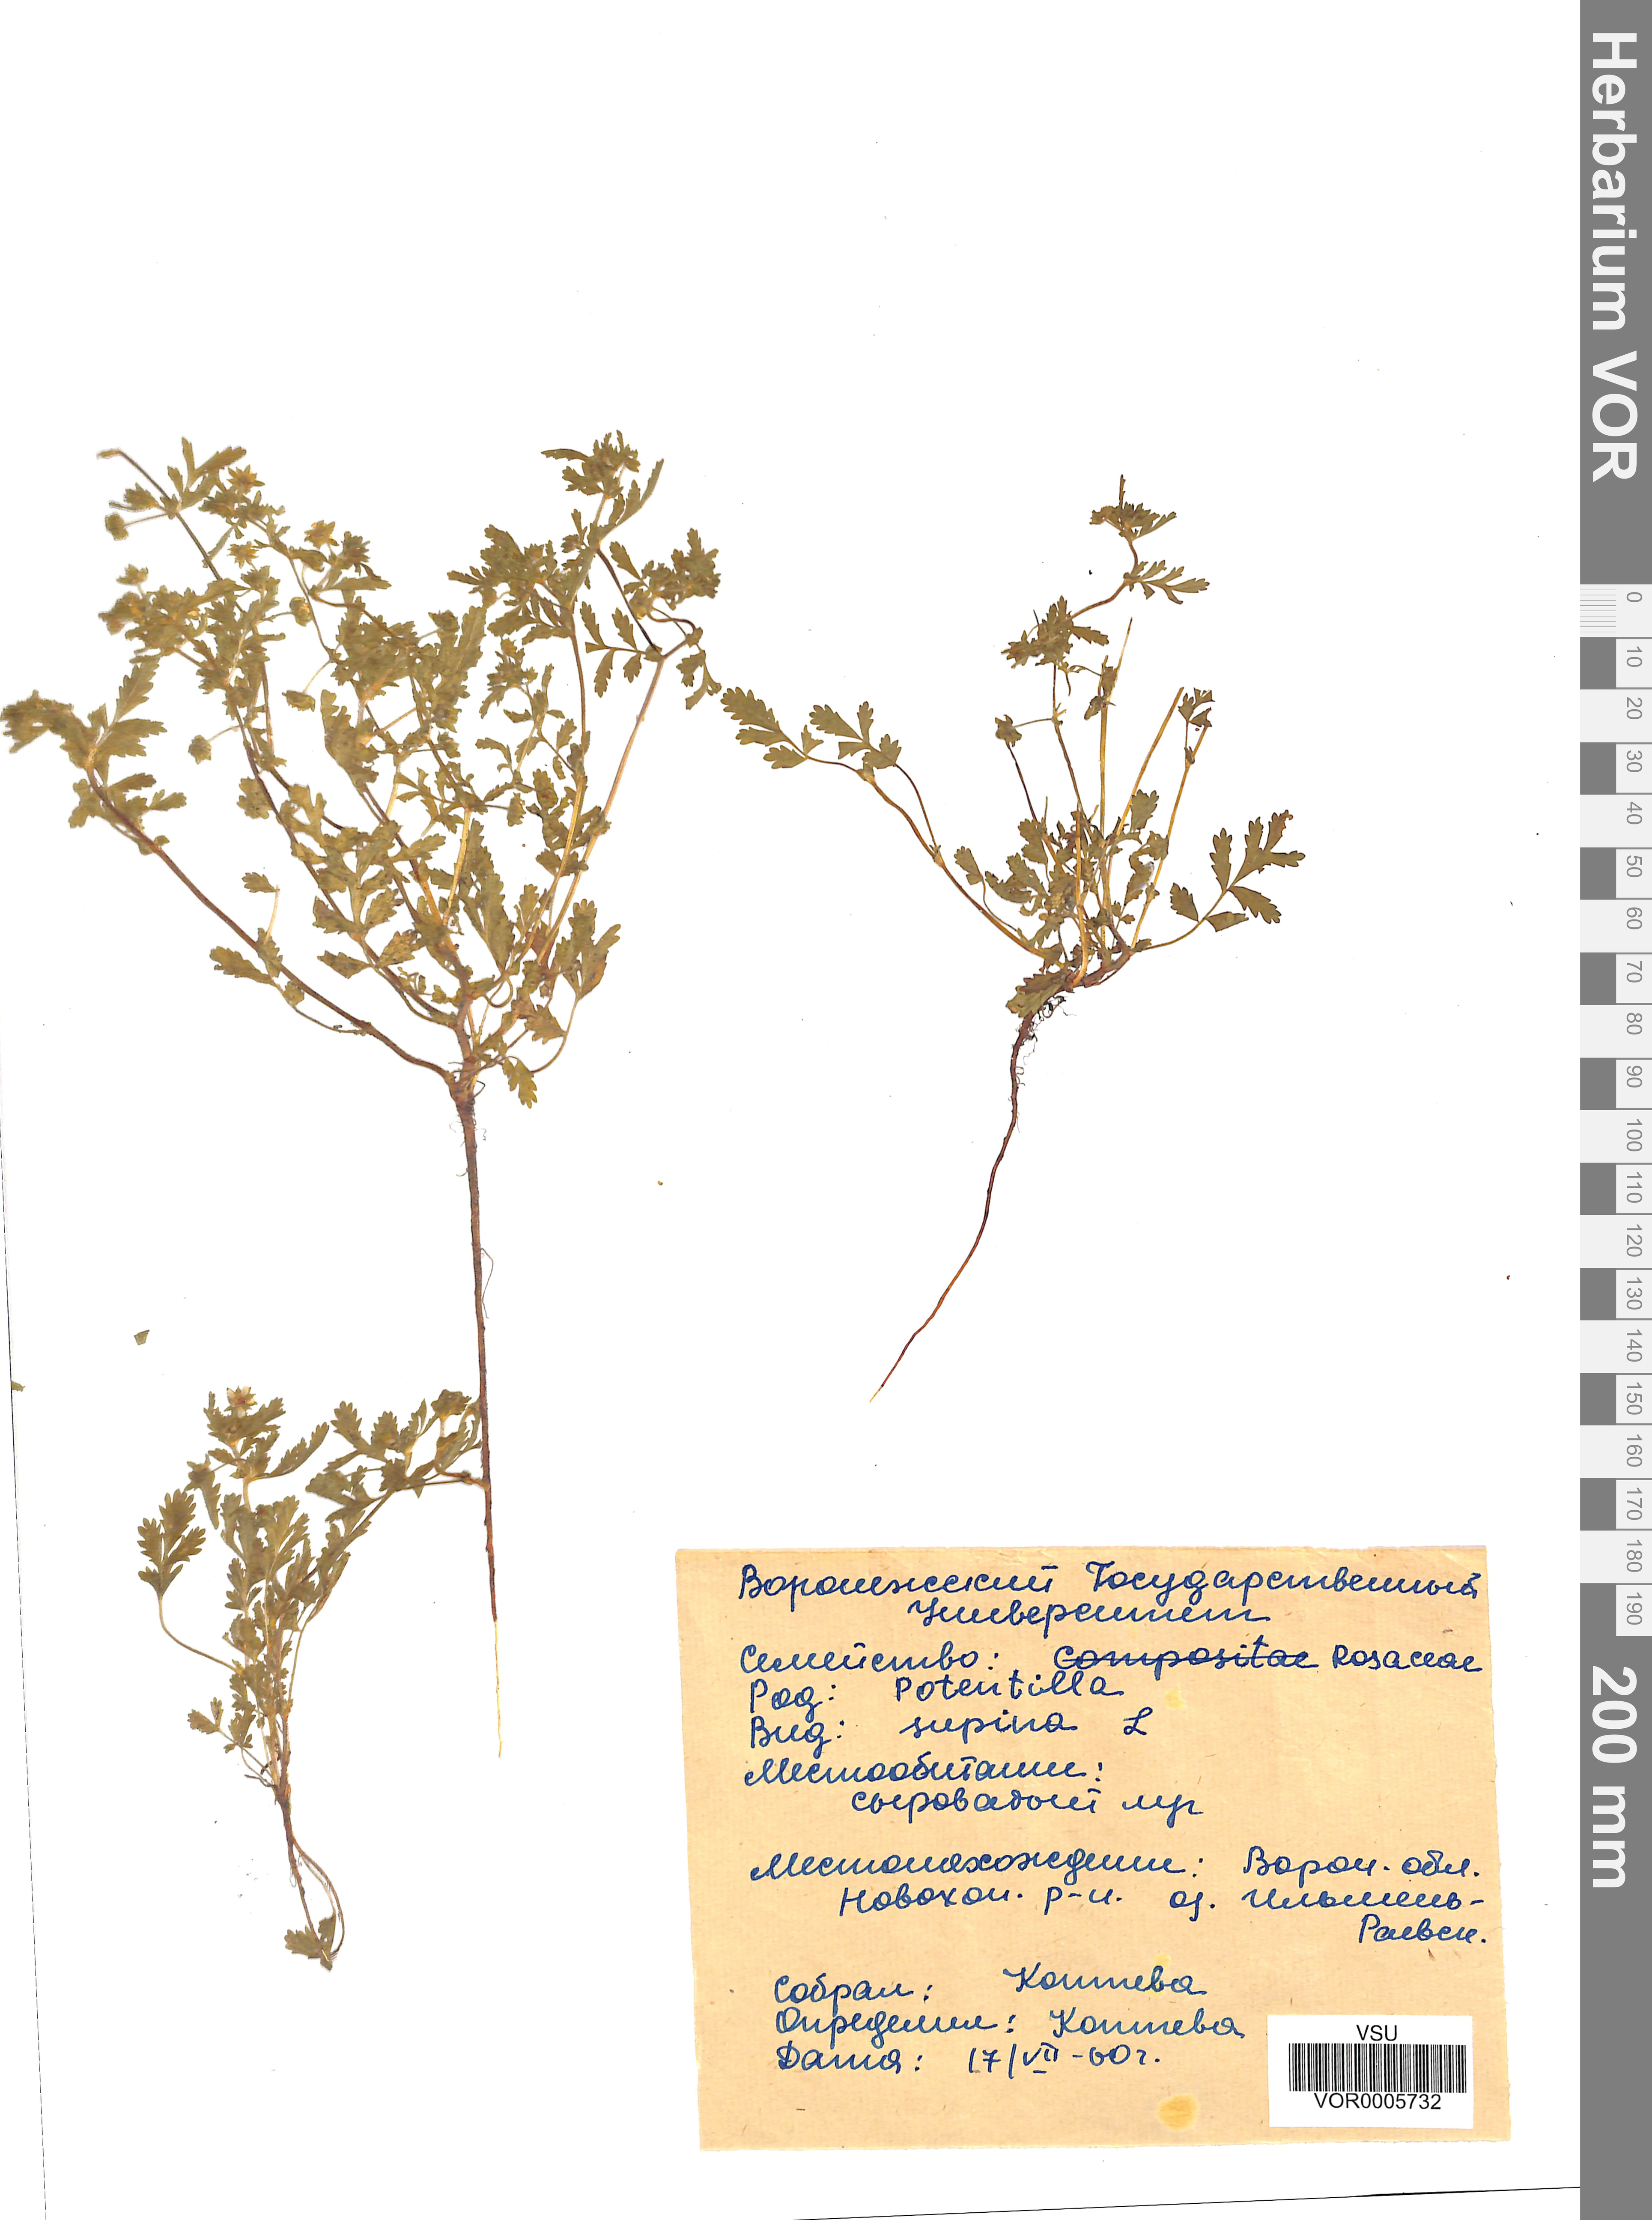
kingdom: Plantae
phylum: Tracheophyta
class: Magnoliopsida
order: Rosales
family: Rosaceae
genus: Potentilla
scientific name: Potentilla supina
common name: Prostrate cinquefoil
